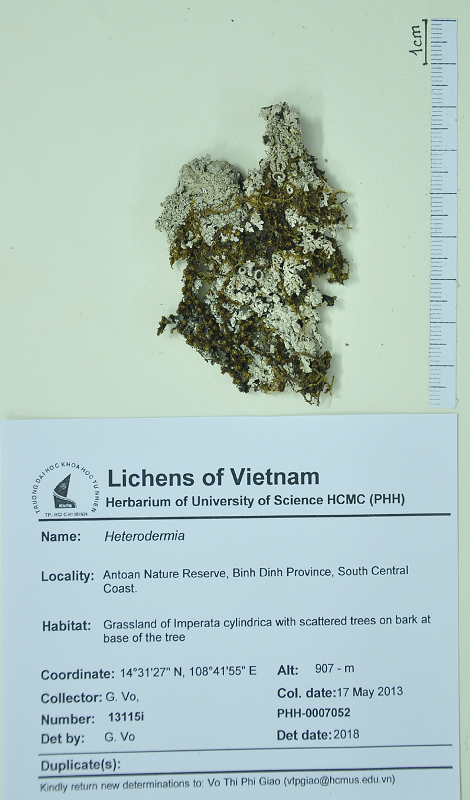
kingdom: Fungi
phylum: Ascomycota
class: Lecanoromycetes
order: Caliciales
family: Physciaceae
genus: Heterodermia
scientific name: Heterodermia
